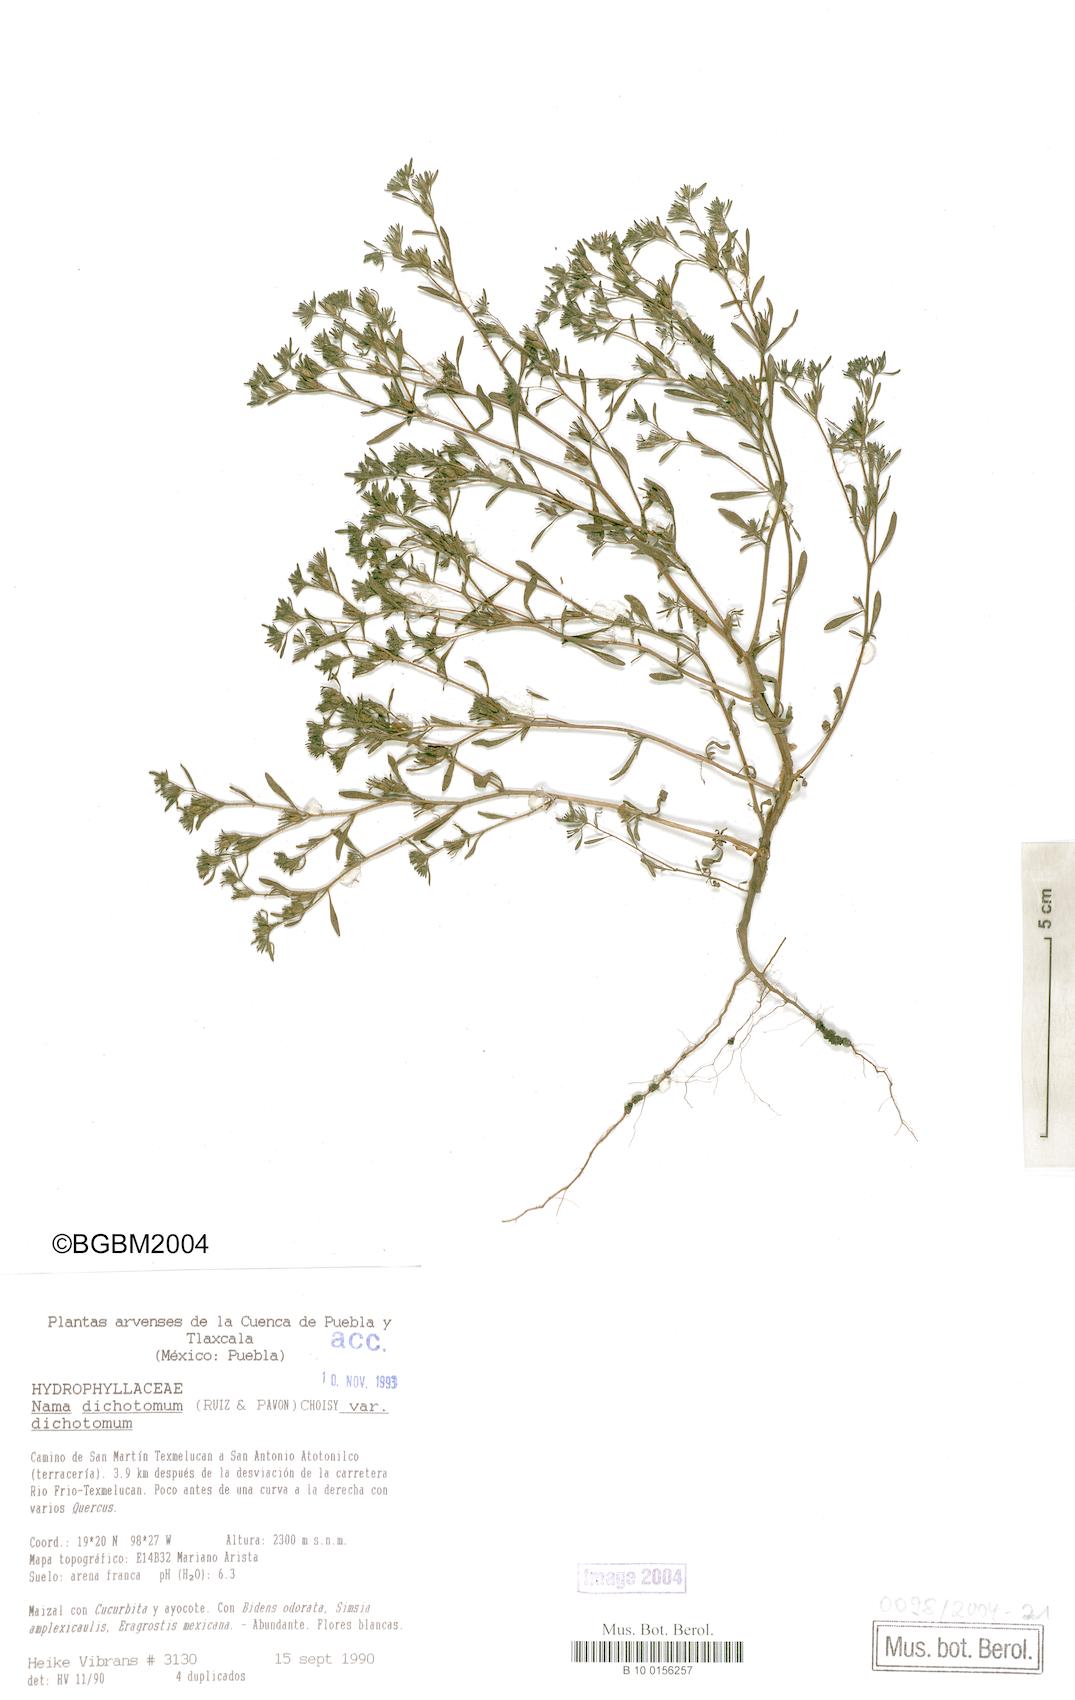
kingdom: Plantae
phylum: Tracheophyta
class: Magnoliopsida
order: Boraginales
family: Namaceae
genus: Nama
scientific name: Nama dichotoma
